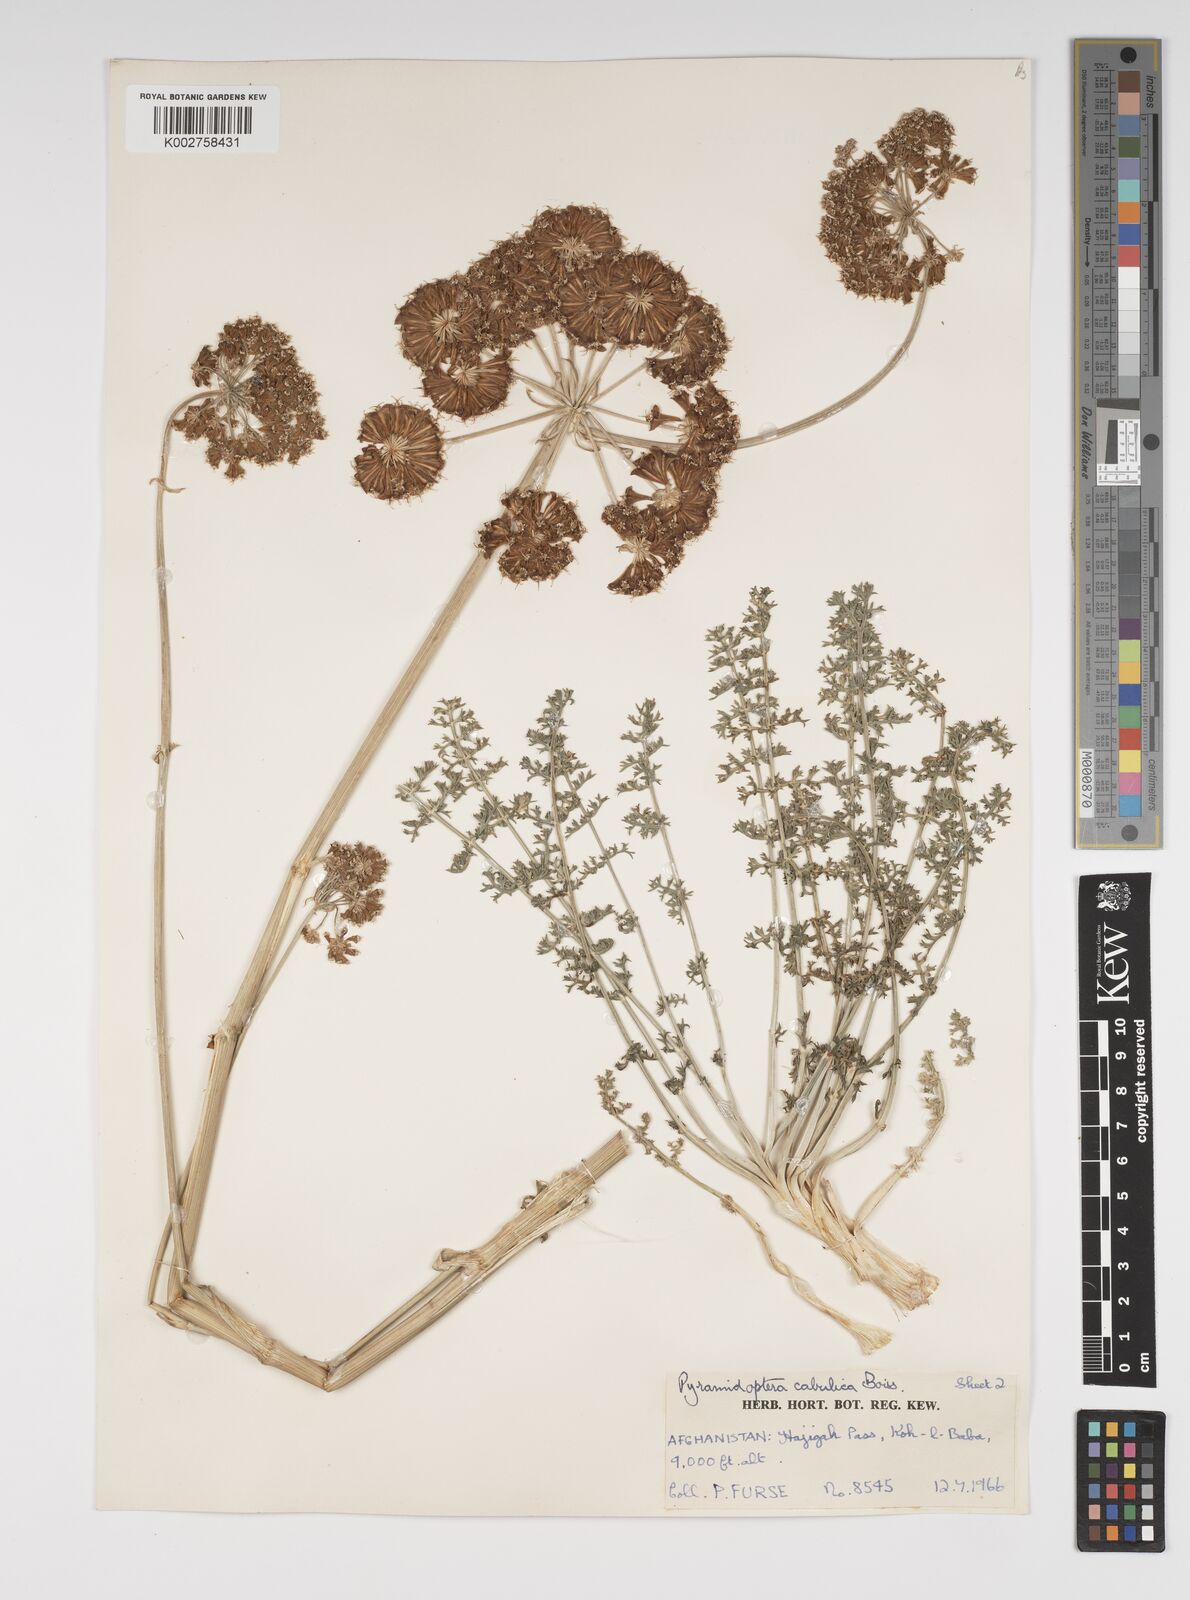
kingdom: Plantae
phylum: Tracheophyta
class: Magnoliopsida
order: Apiales
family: Apiaceae
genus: Pyramidoptera
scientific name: Pyramidoptera cabulica
